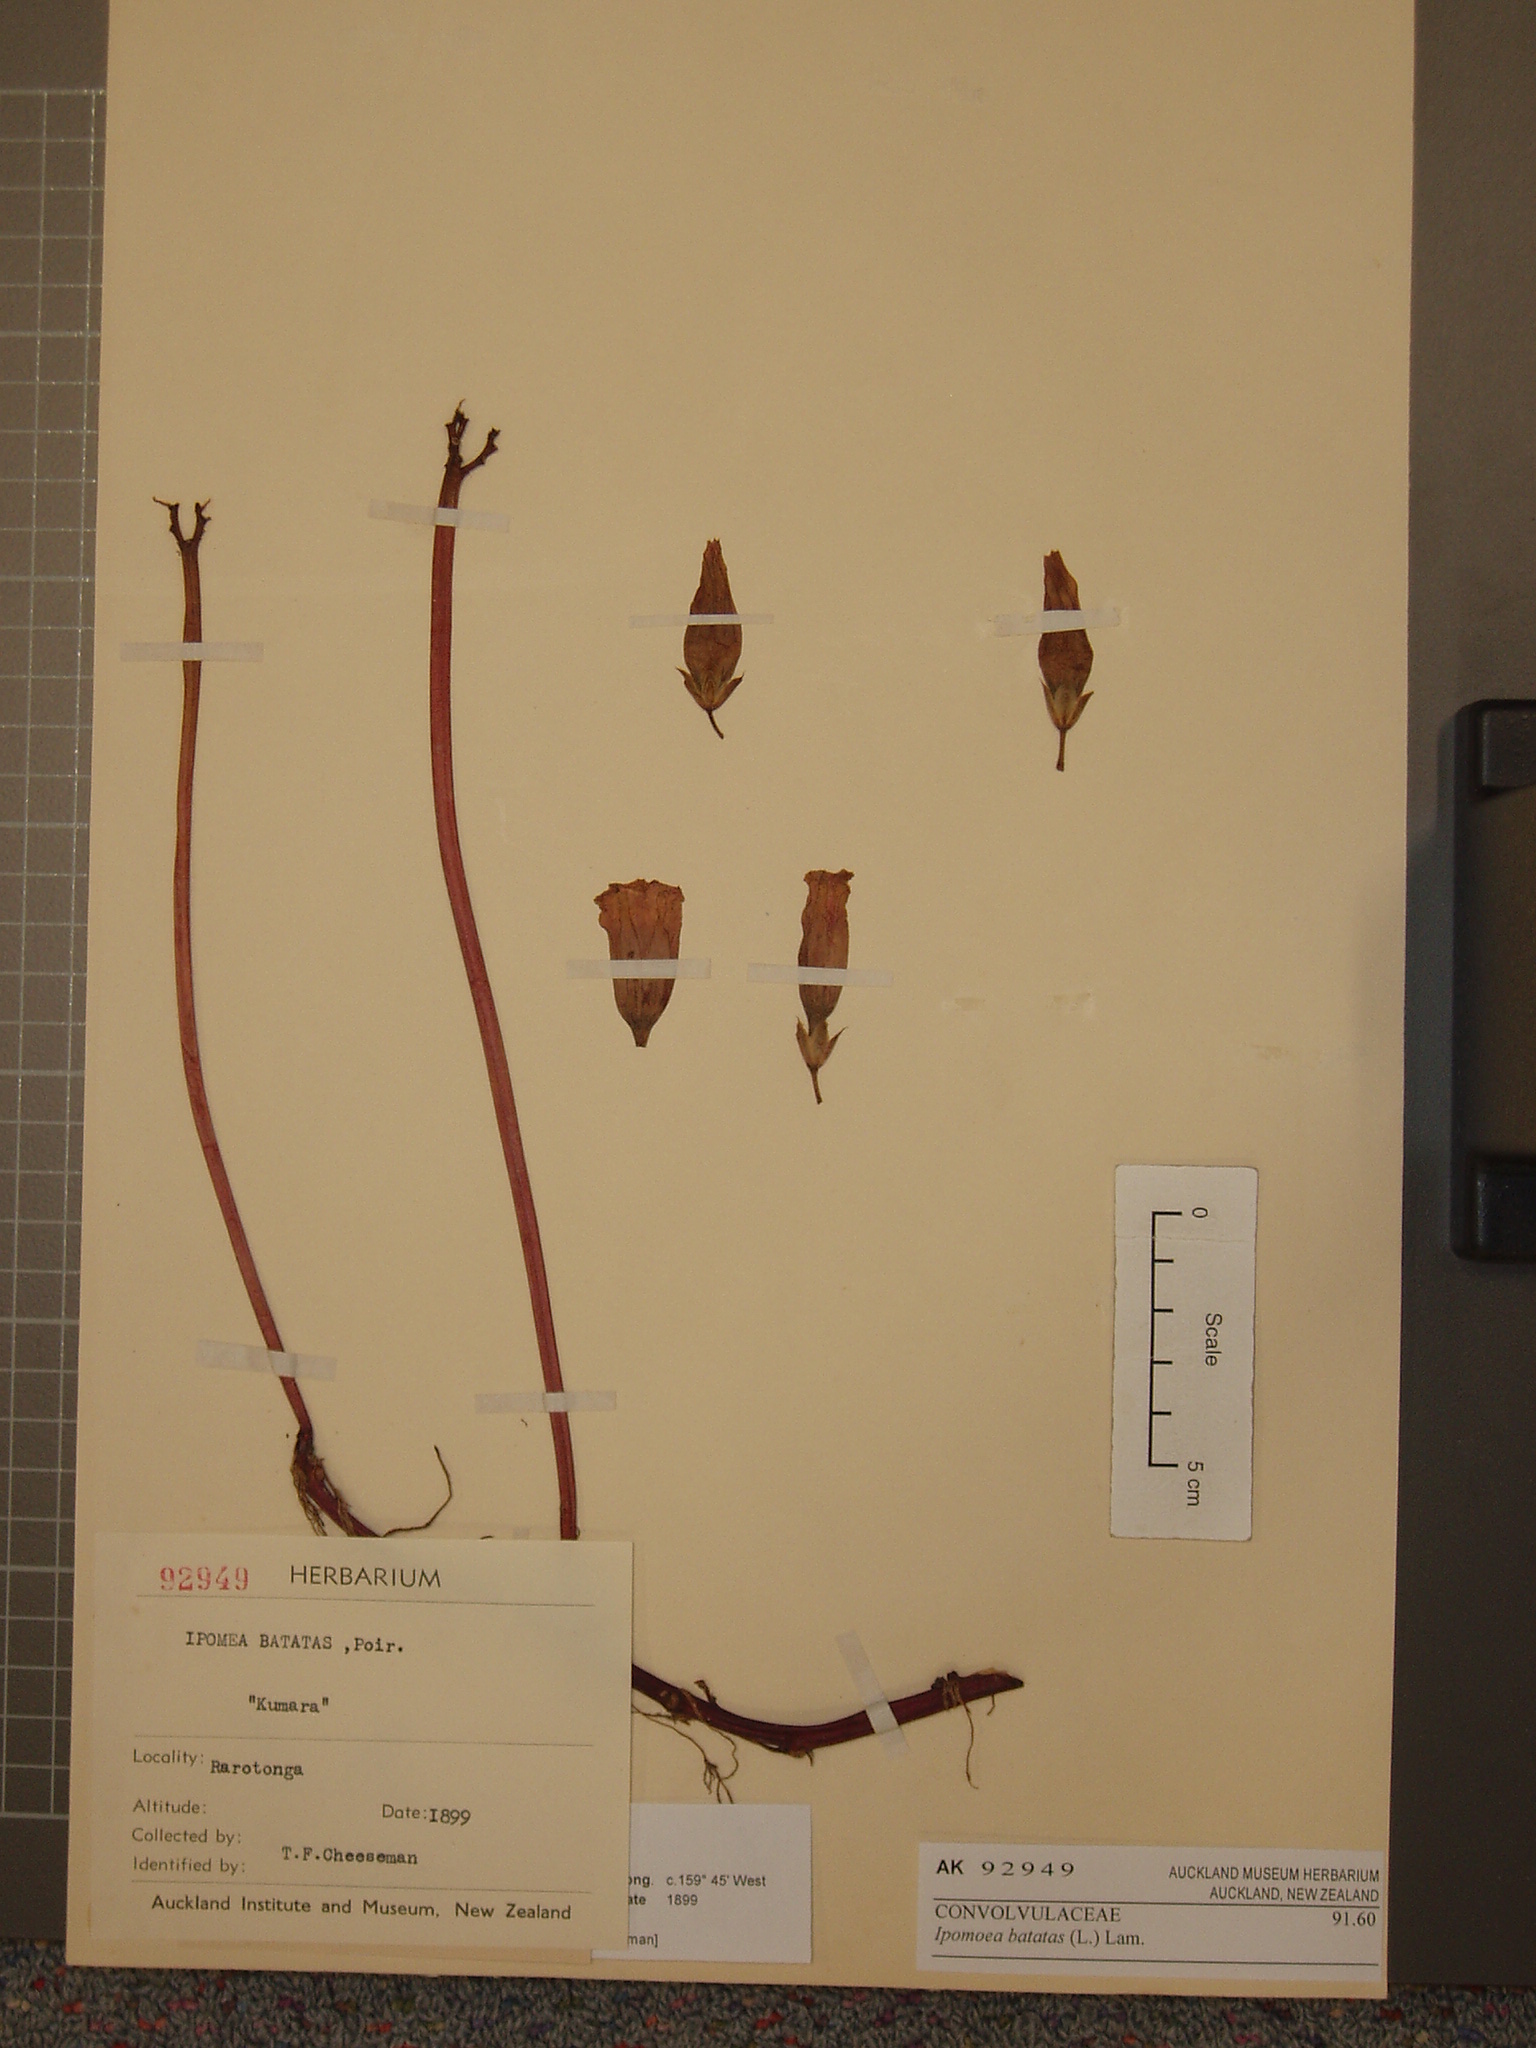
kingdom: Plantae
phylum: Tracheophyta
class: Magnoliopsida
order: Solanales
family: Convolvulaceae
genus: Ipomoea
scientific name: Ipomoea batatas
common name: Sweet-potato
